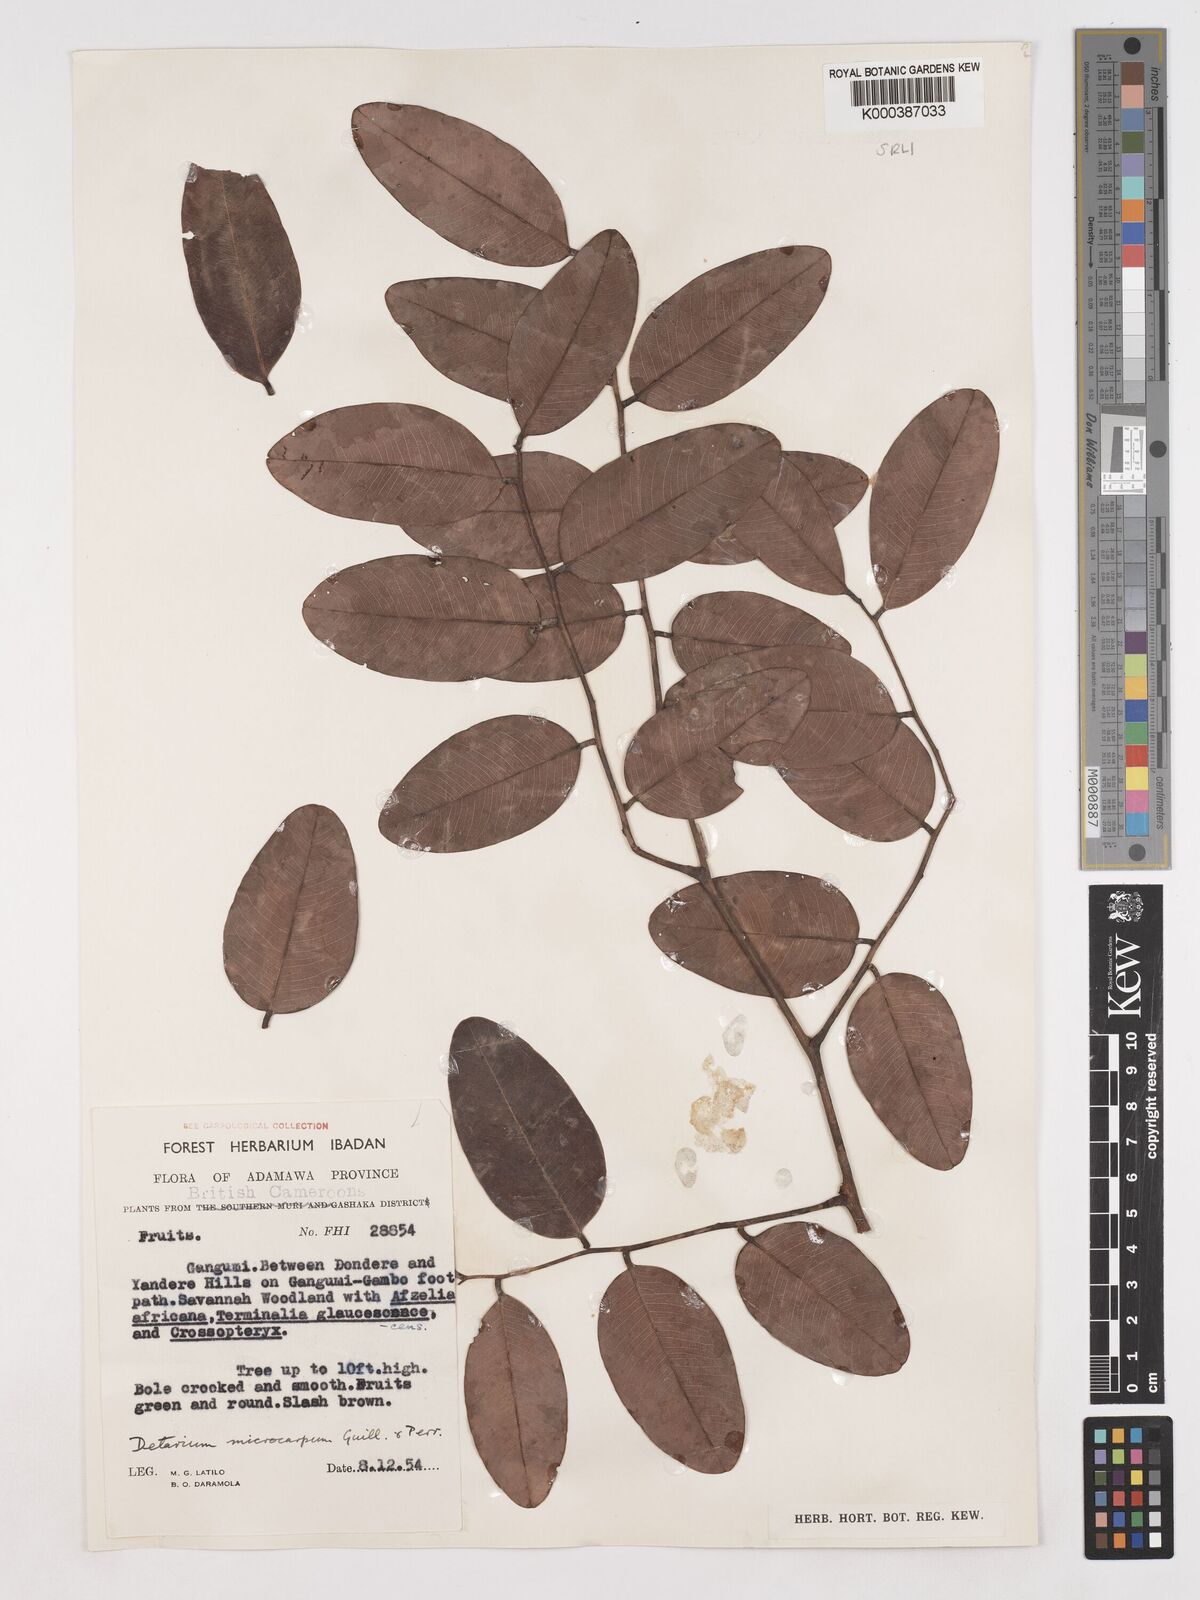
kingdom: Plantae
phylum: Tracheophyta
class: Magnoliopsida
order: Fabales
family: Fabaceae
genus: Detarium
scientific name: Detarium microcarpum
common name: Sweet dattock
